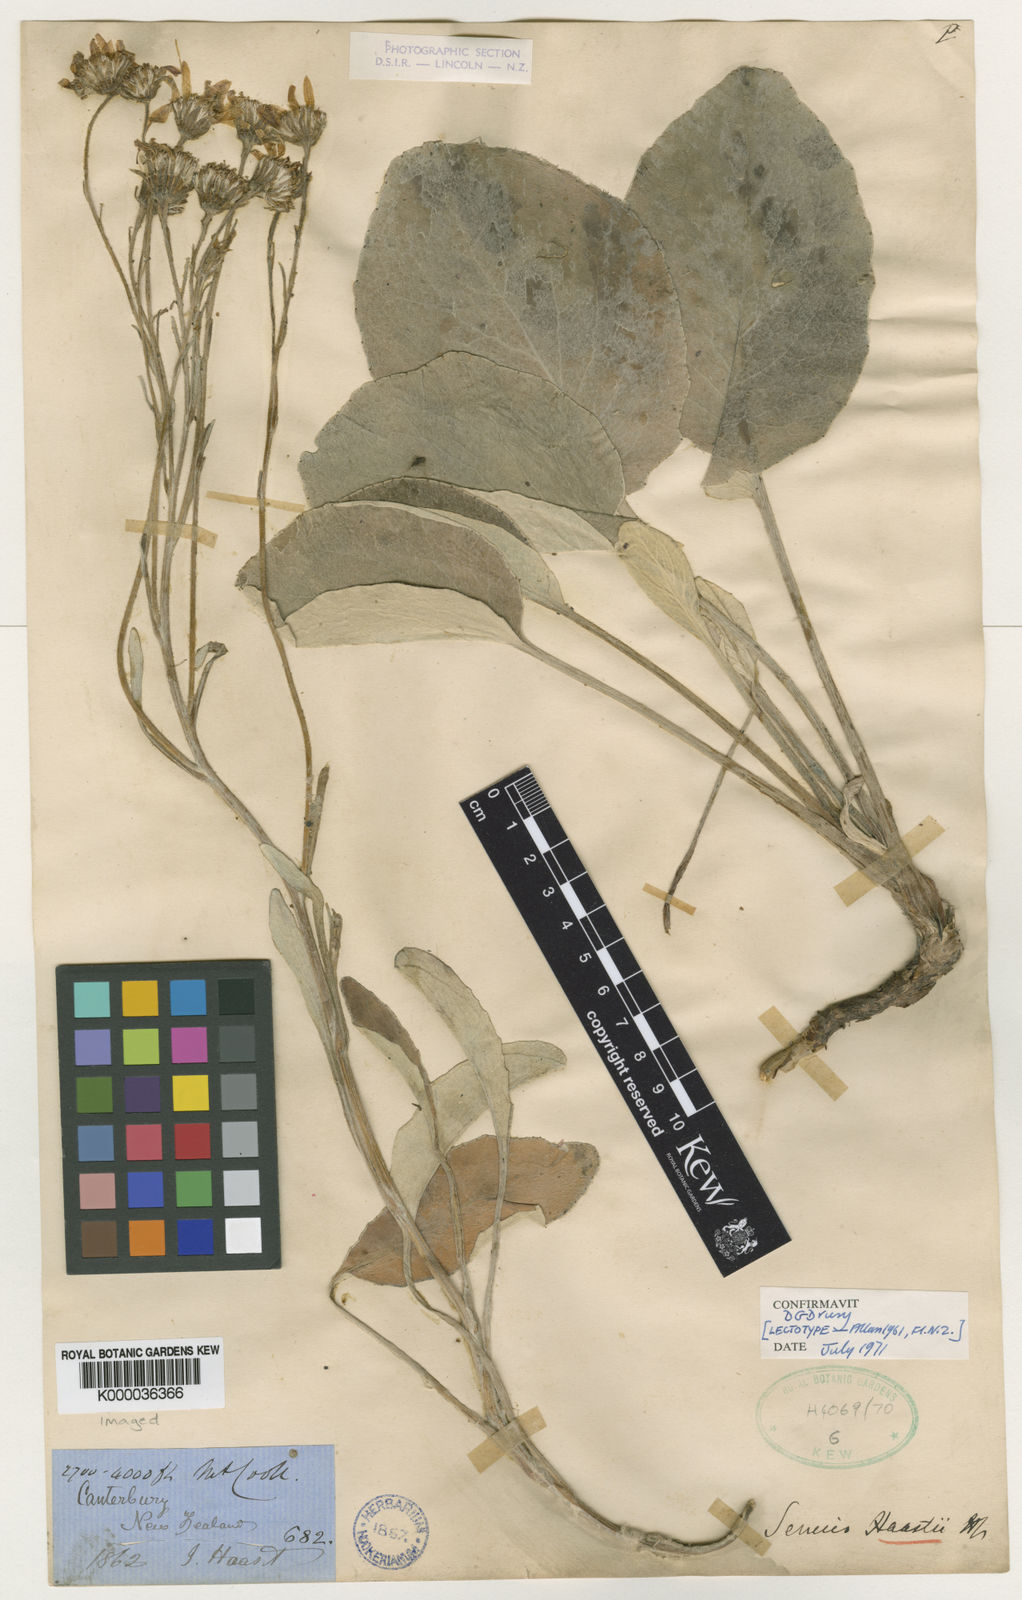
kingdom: Plantae
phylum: Tracheophyta
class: Magnoliopsida
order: Asterales
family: Asteraceae
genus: Brachyglottis
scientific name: Brachyglottis haastii
